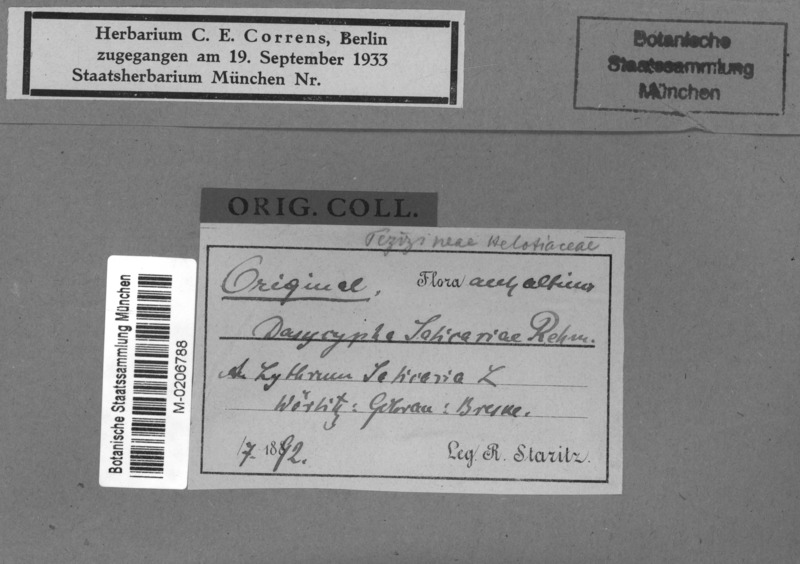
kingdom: Fungi
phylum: Ascomycota
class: Leotiomycetes
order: Helotiales
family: Lachnaceae
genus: Lachnum
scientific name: Lachnum salicariae
